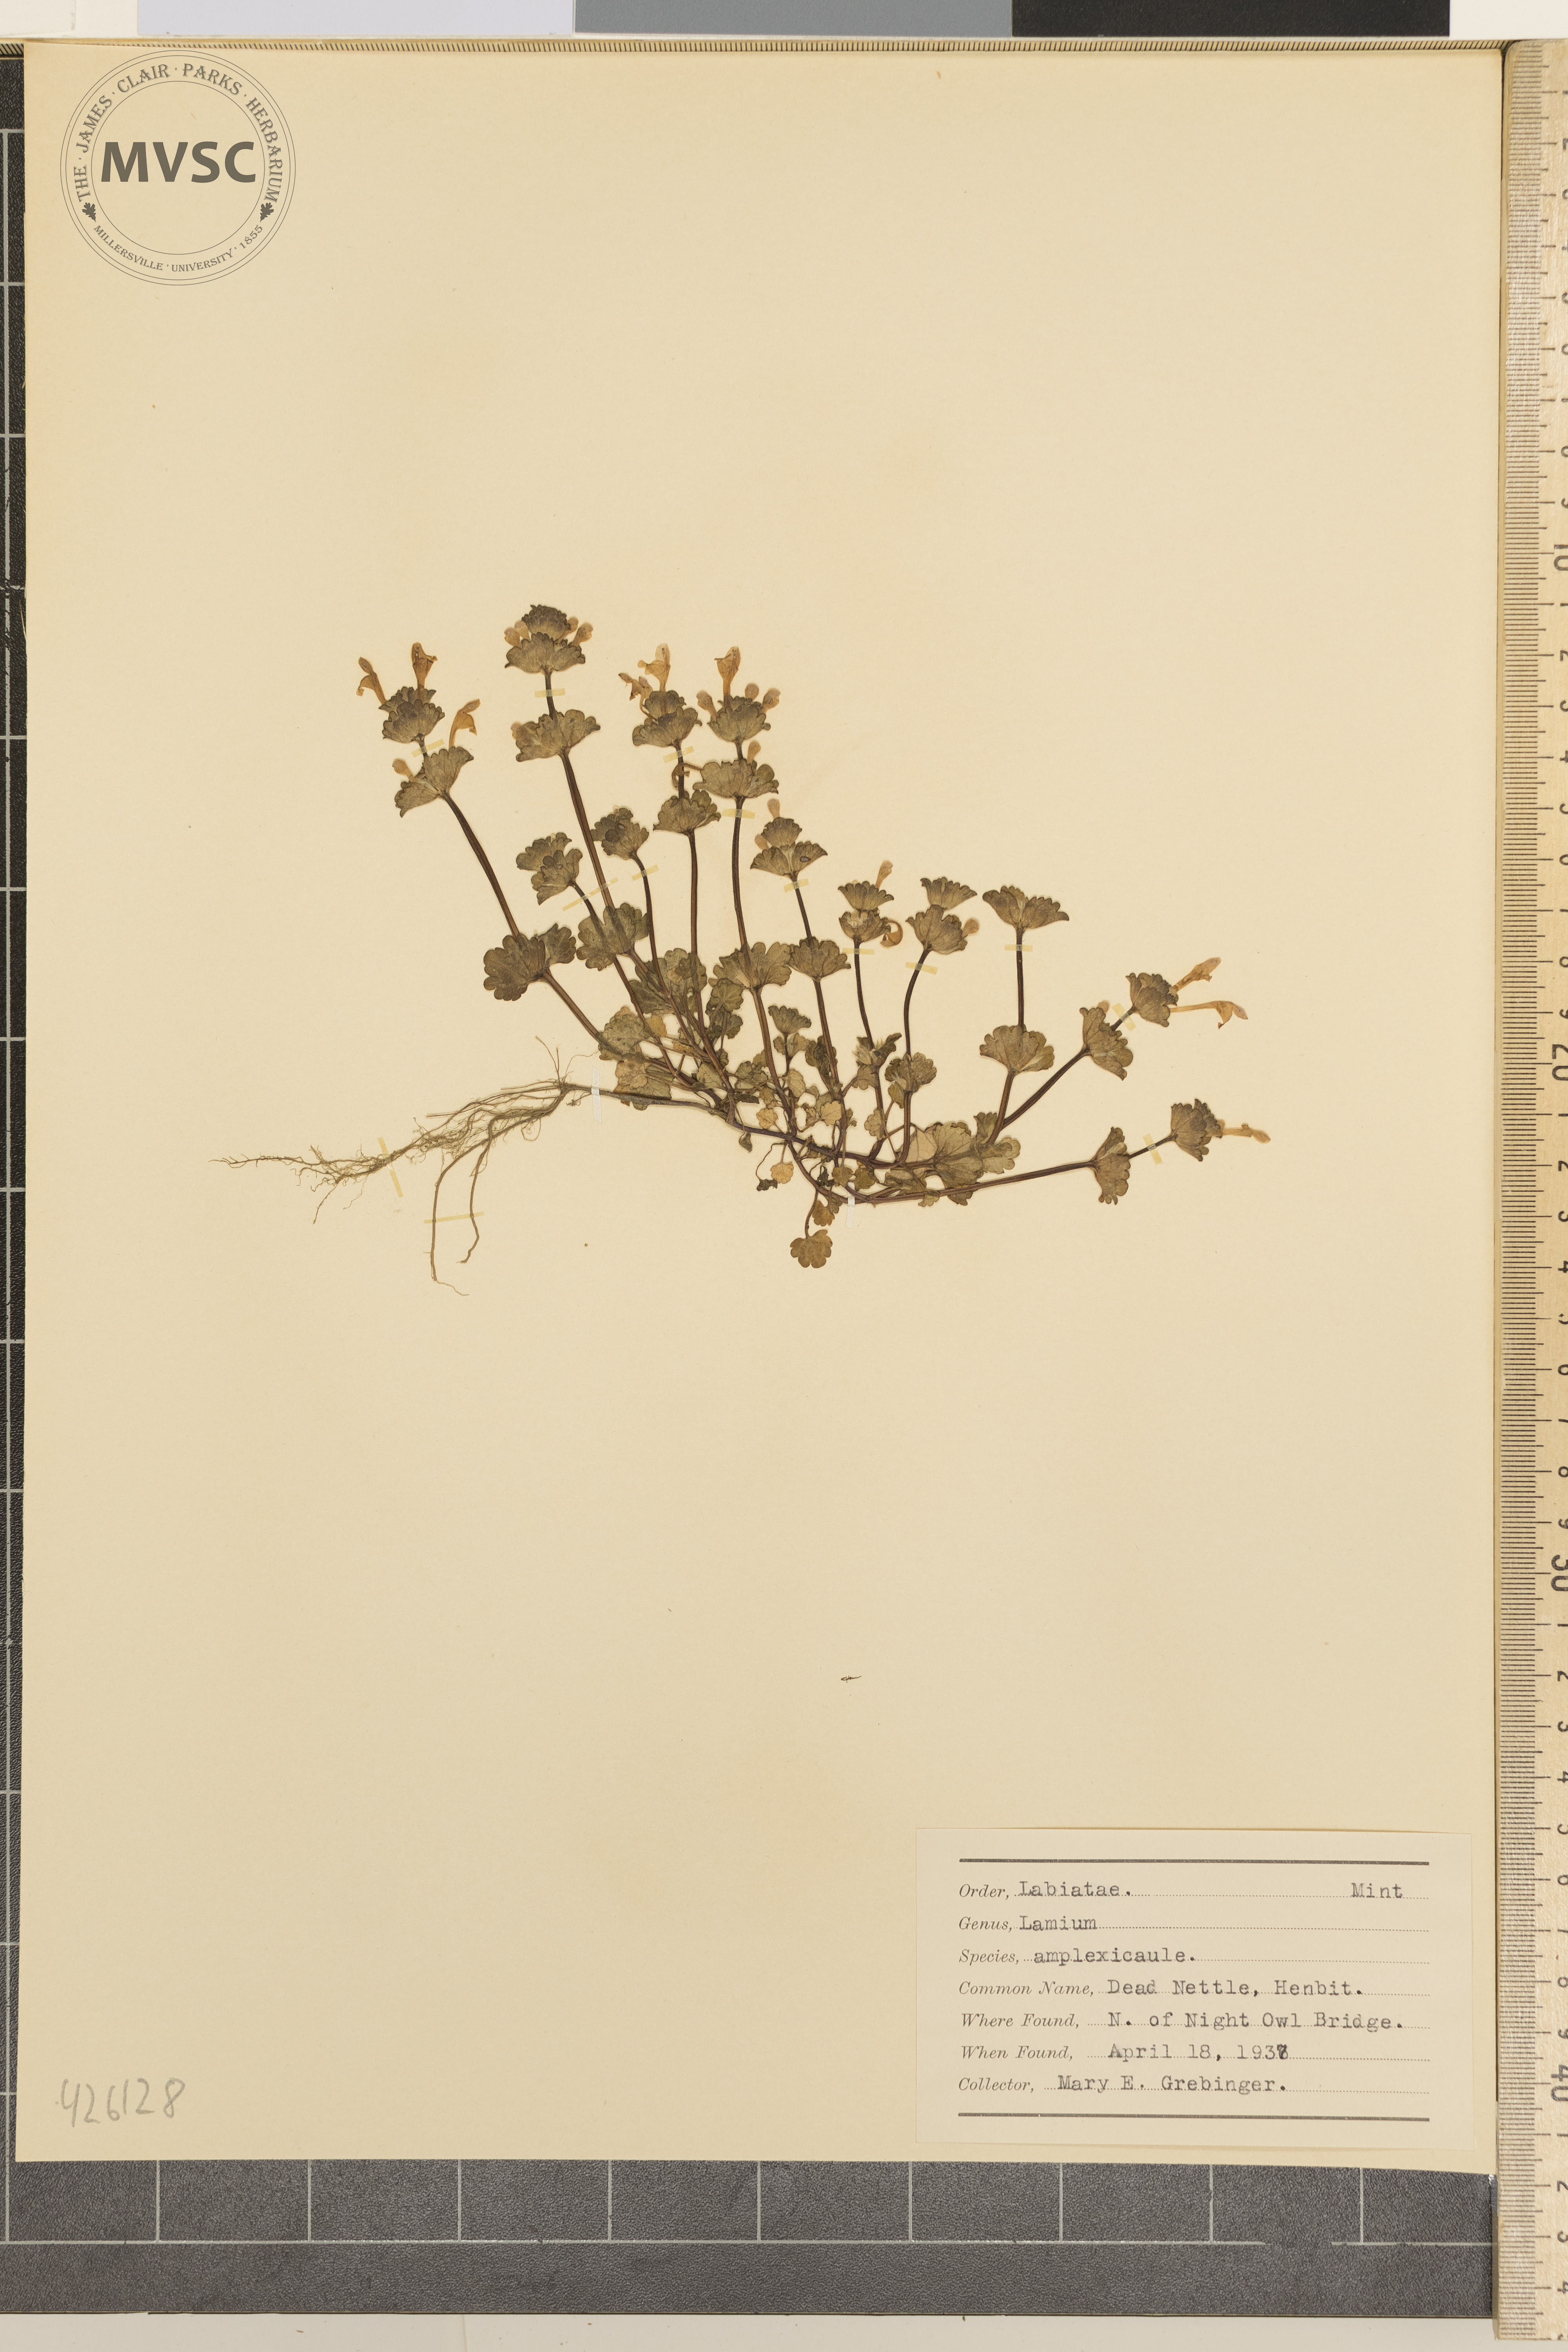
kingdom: Plantae
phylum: Tracheophyta
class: Magnoliopsida
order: Lamiales
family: Lamiaceae
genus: Lamium
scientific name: Lamium amplexicaule
